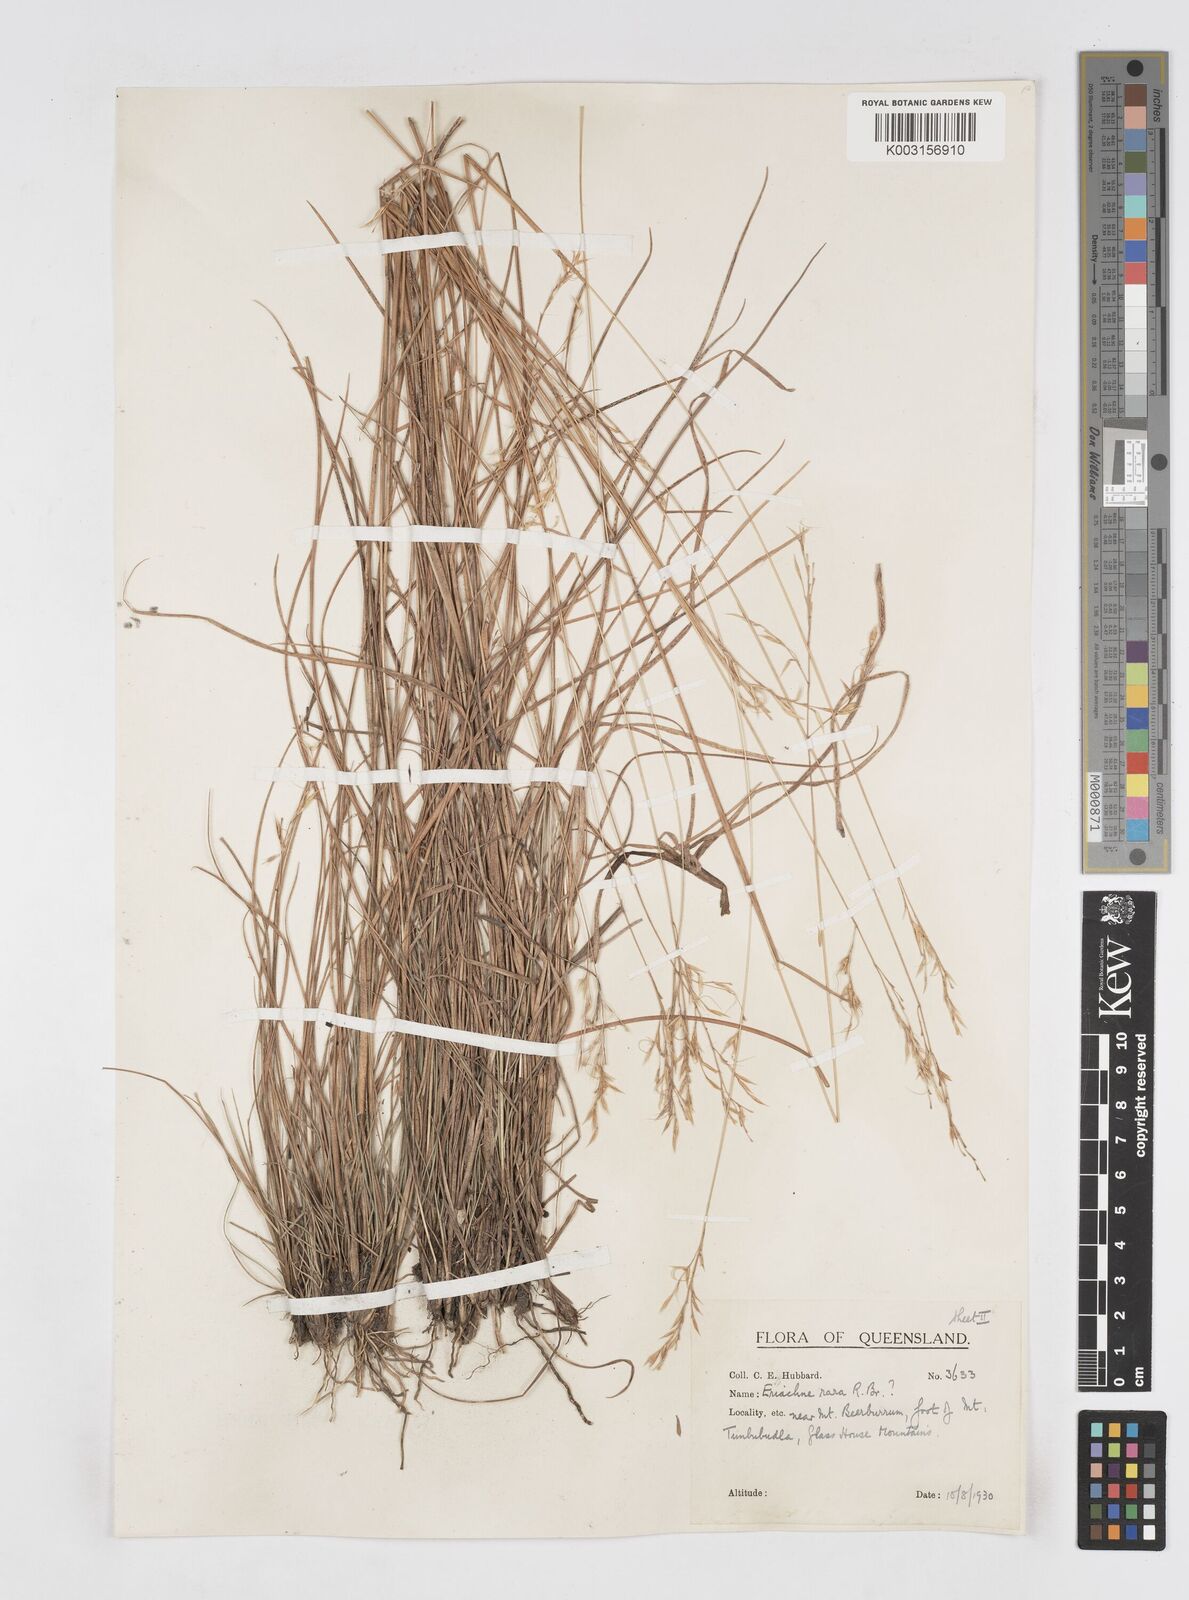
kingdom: Plantae
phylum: Tracheophyta
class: Liliopsida
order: Poales
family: Poaceae
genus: Eriachne
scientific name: Eriachne rara
